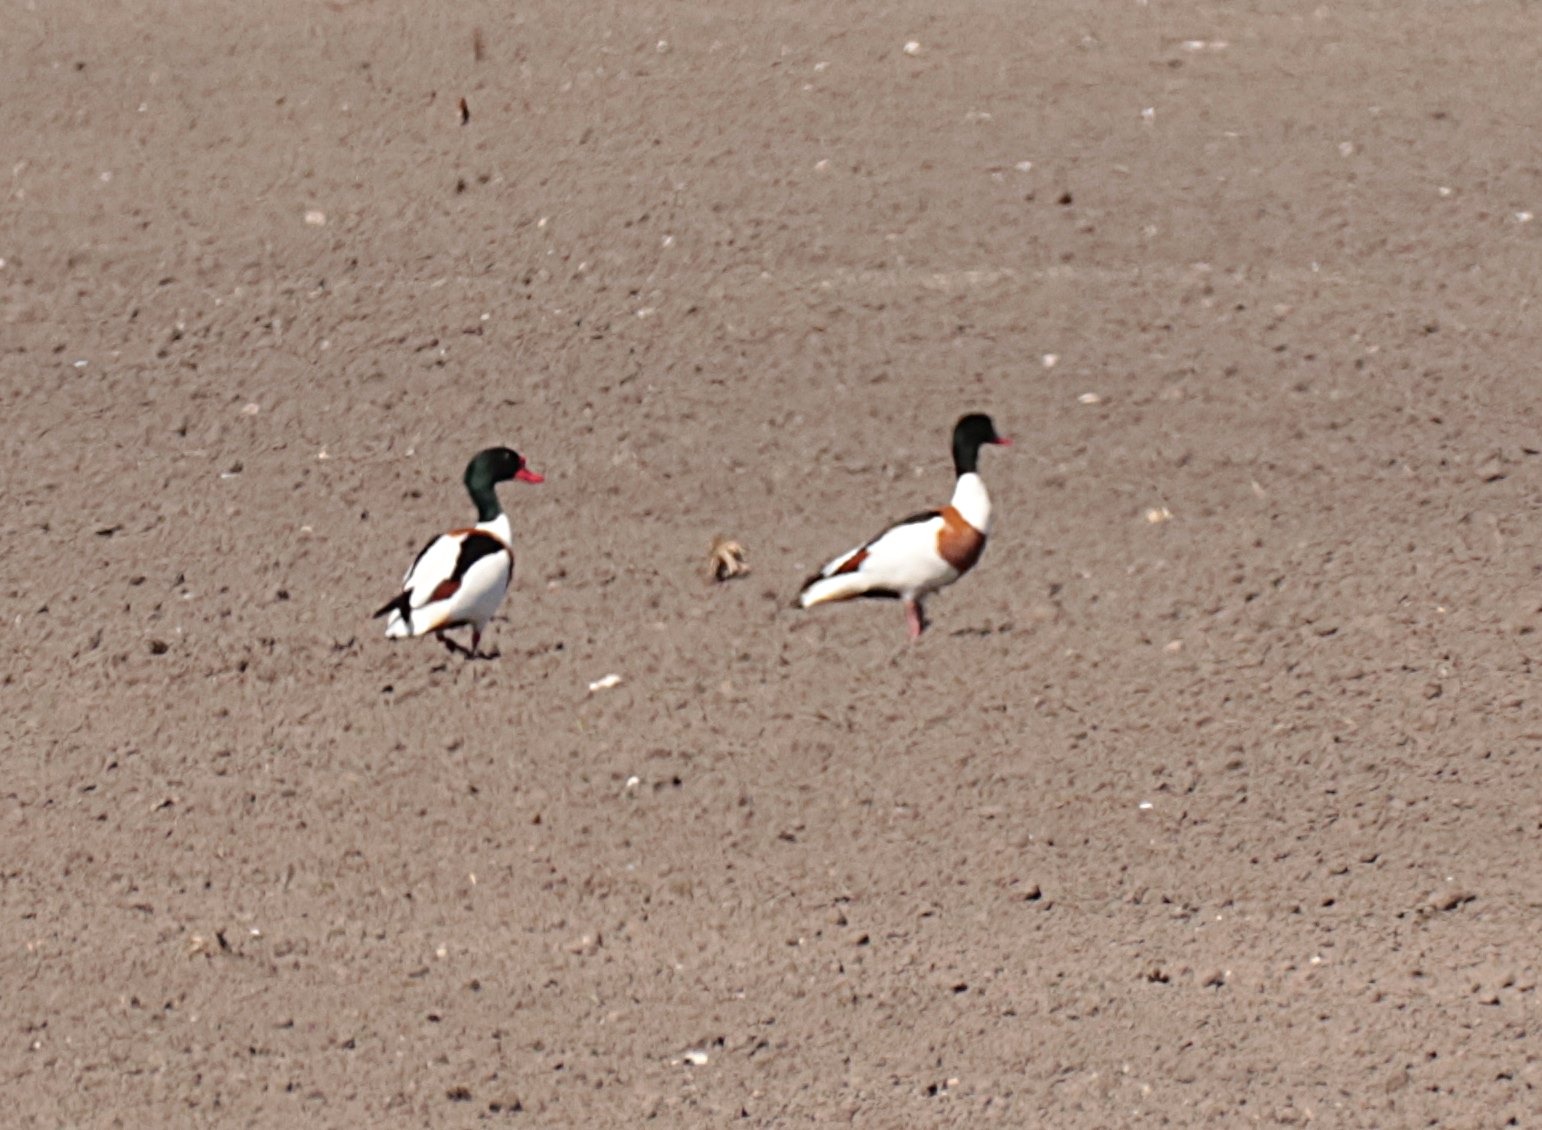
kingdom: Animalia
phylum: Chordata
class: Aves
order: Anseriformes
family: Anatidae
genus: Tadorna
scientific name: Tadorna tadorna
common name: Gravand
